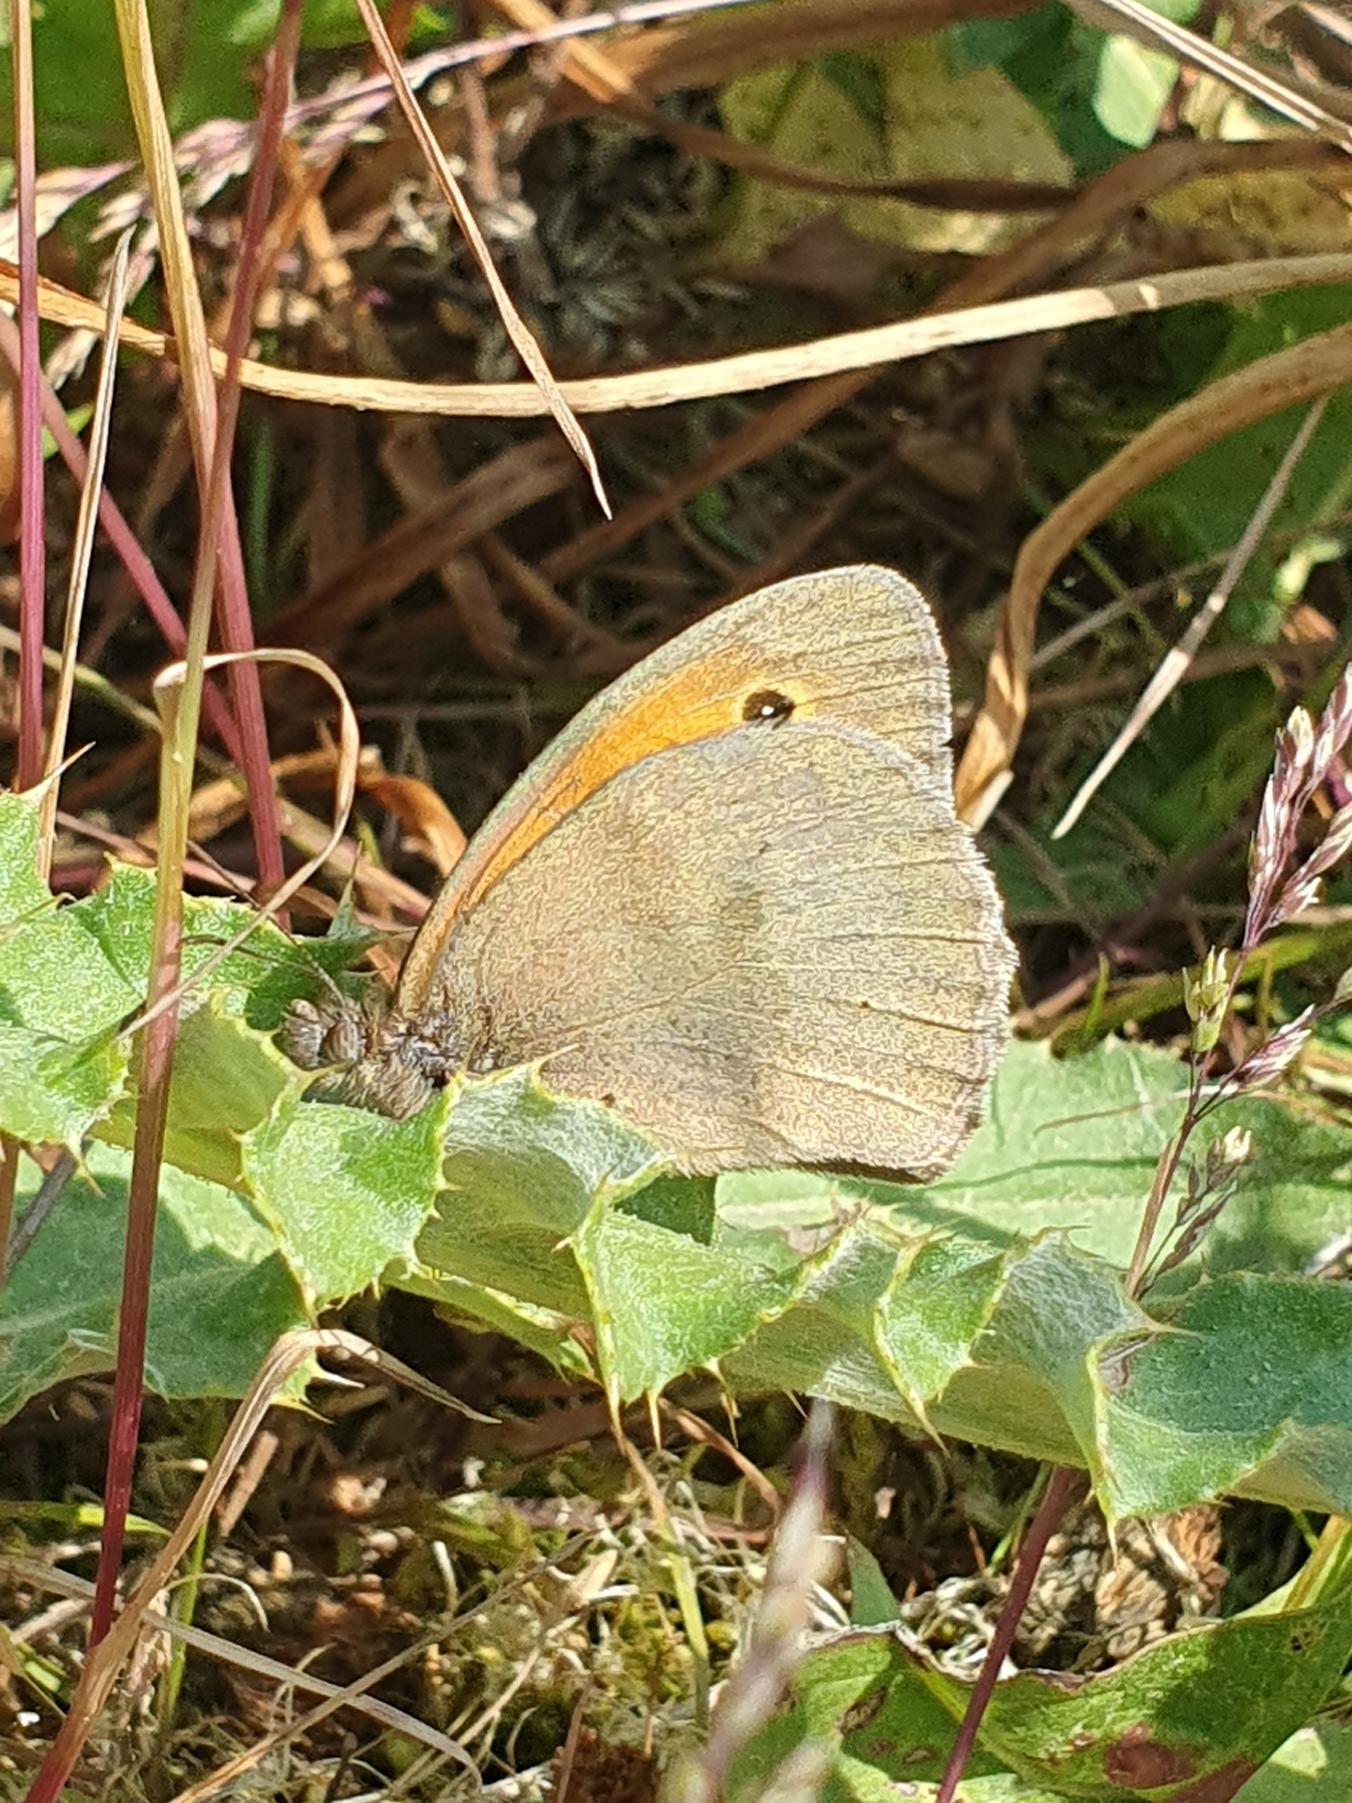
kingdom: Animalia
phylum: Arthropoda
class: Insecta
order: Lepidoptera
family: Nymphalidae
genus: Maniola
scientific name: Maniola jurtina
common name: Græsrandøje
